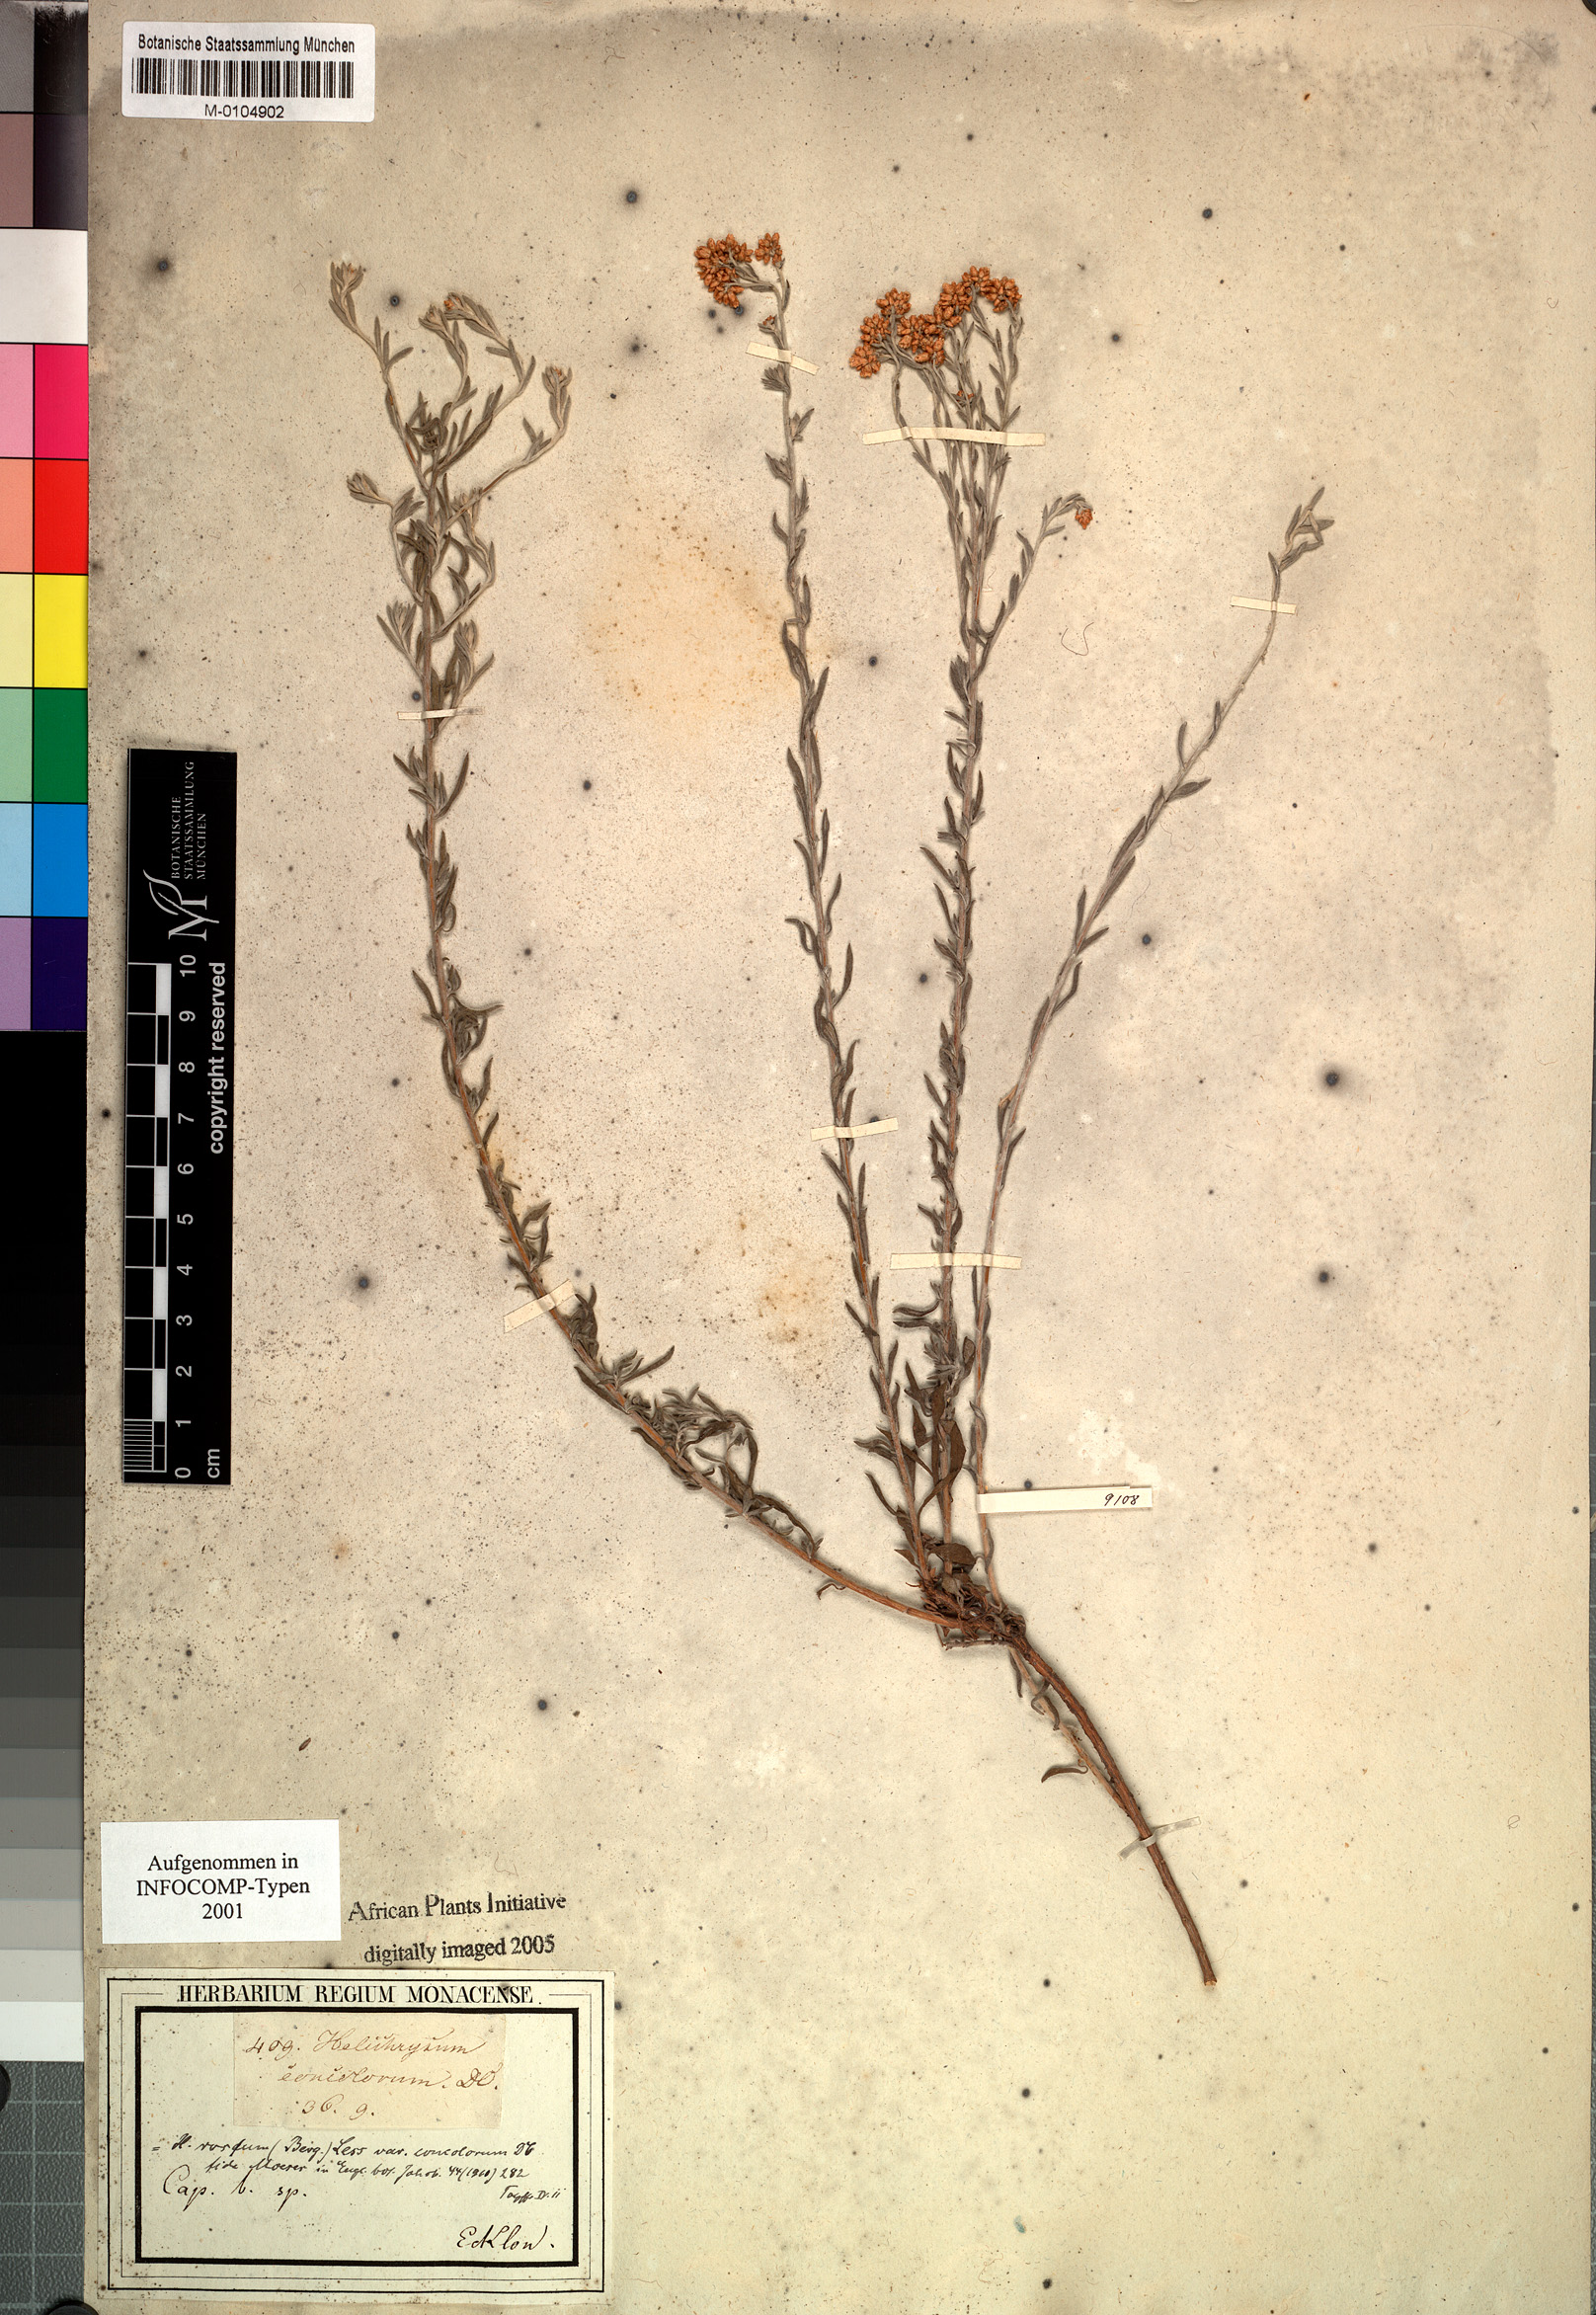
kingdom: Plantae
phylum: Tracheophyta
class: Magnoliopsida
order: Asterales
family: Asteraceae
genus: Helichrysum
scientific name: Helichrysum rosum
